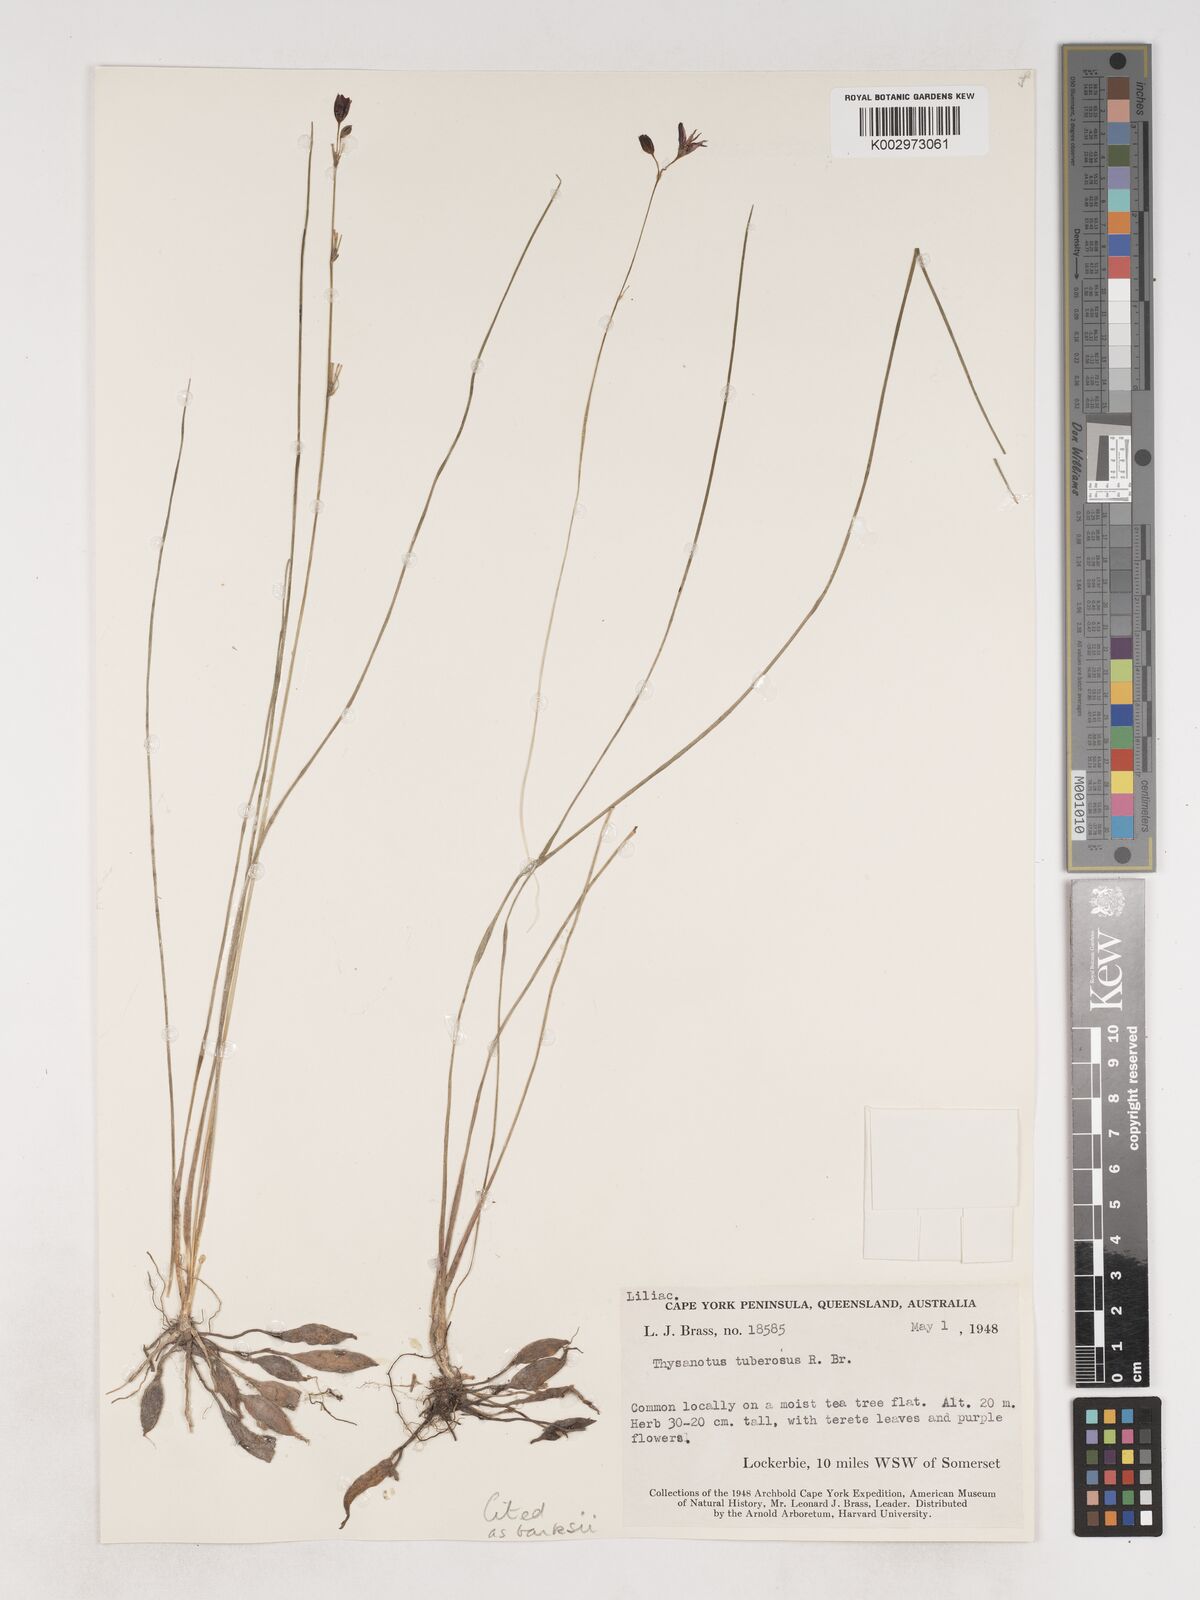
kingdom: Plantae
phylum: Tracheophyta
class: Liliopsida
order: Asparagales
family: Asparagaceae
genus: Thysanotus
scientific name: Thysanotus banksii
